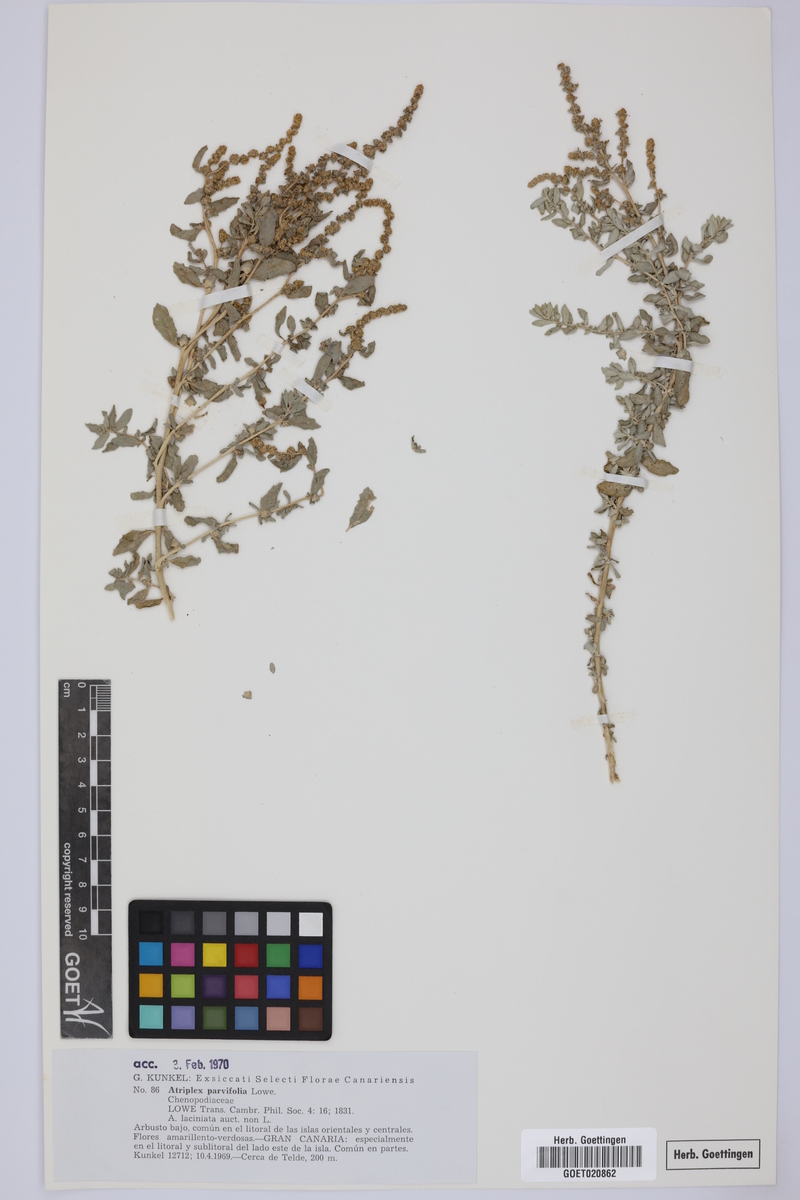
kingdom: Plantae
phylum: Tracheophyta
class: Magnoliopsida
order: Caryophyllales
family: Amaranthaceae
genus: Atriplex
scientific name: Atriplex glauca
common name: Waxy saltbush
